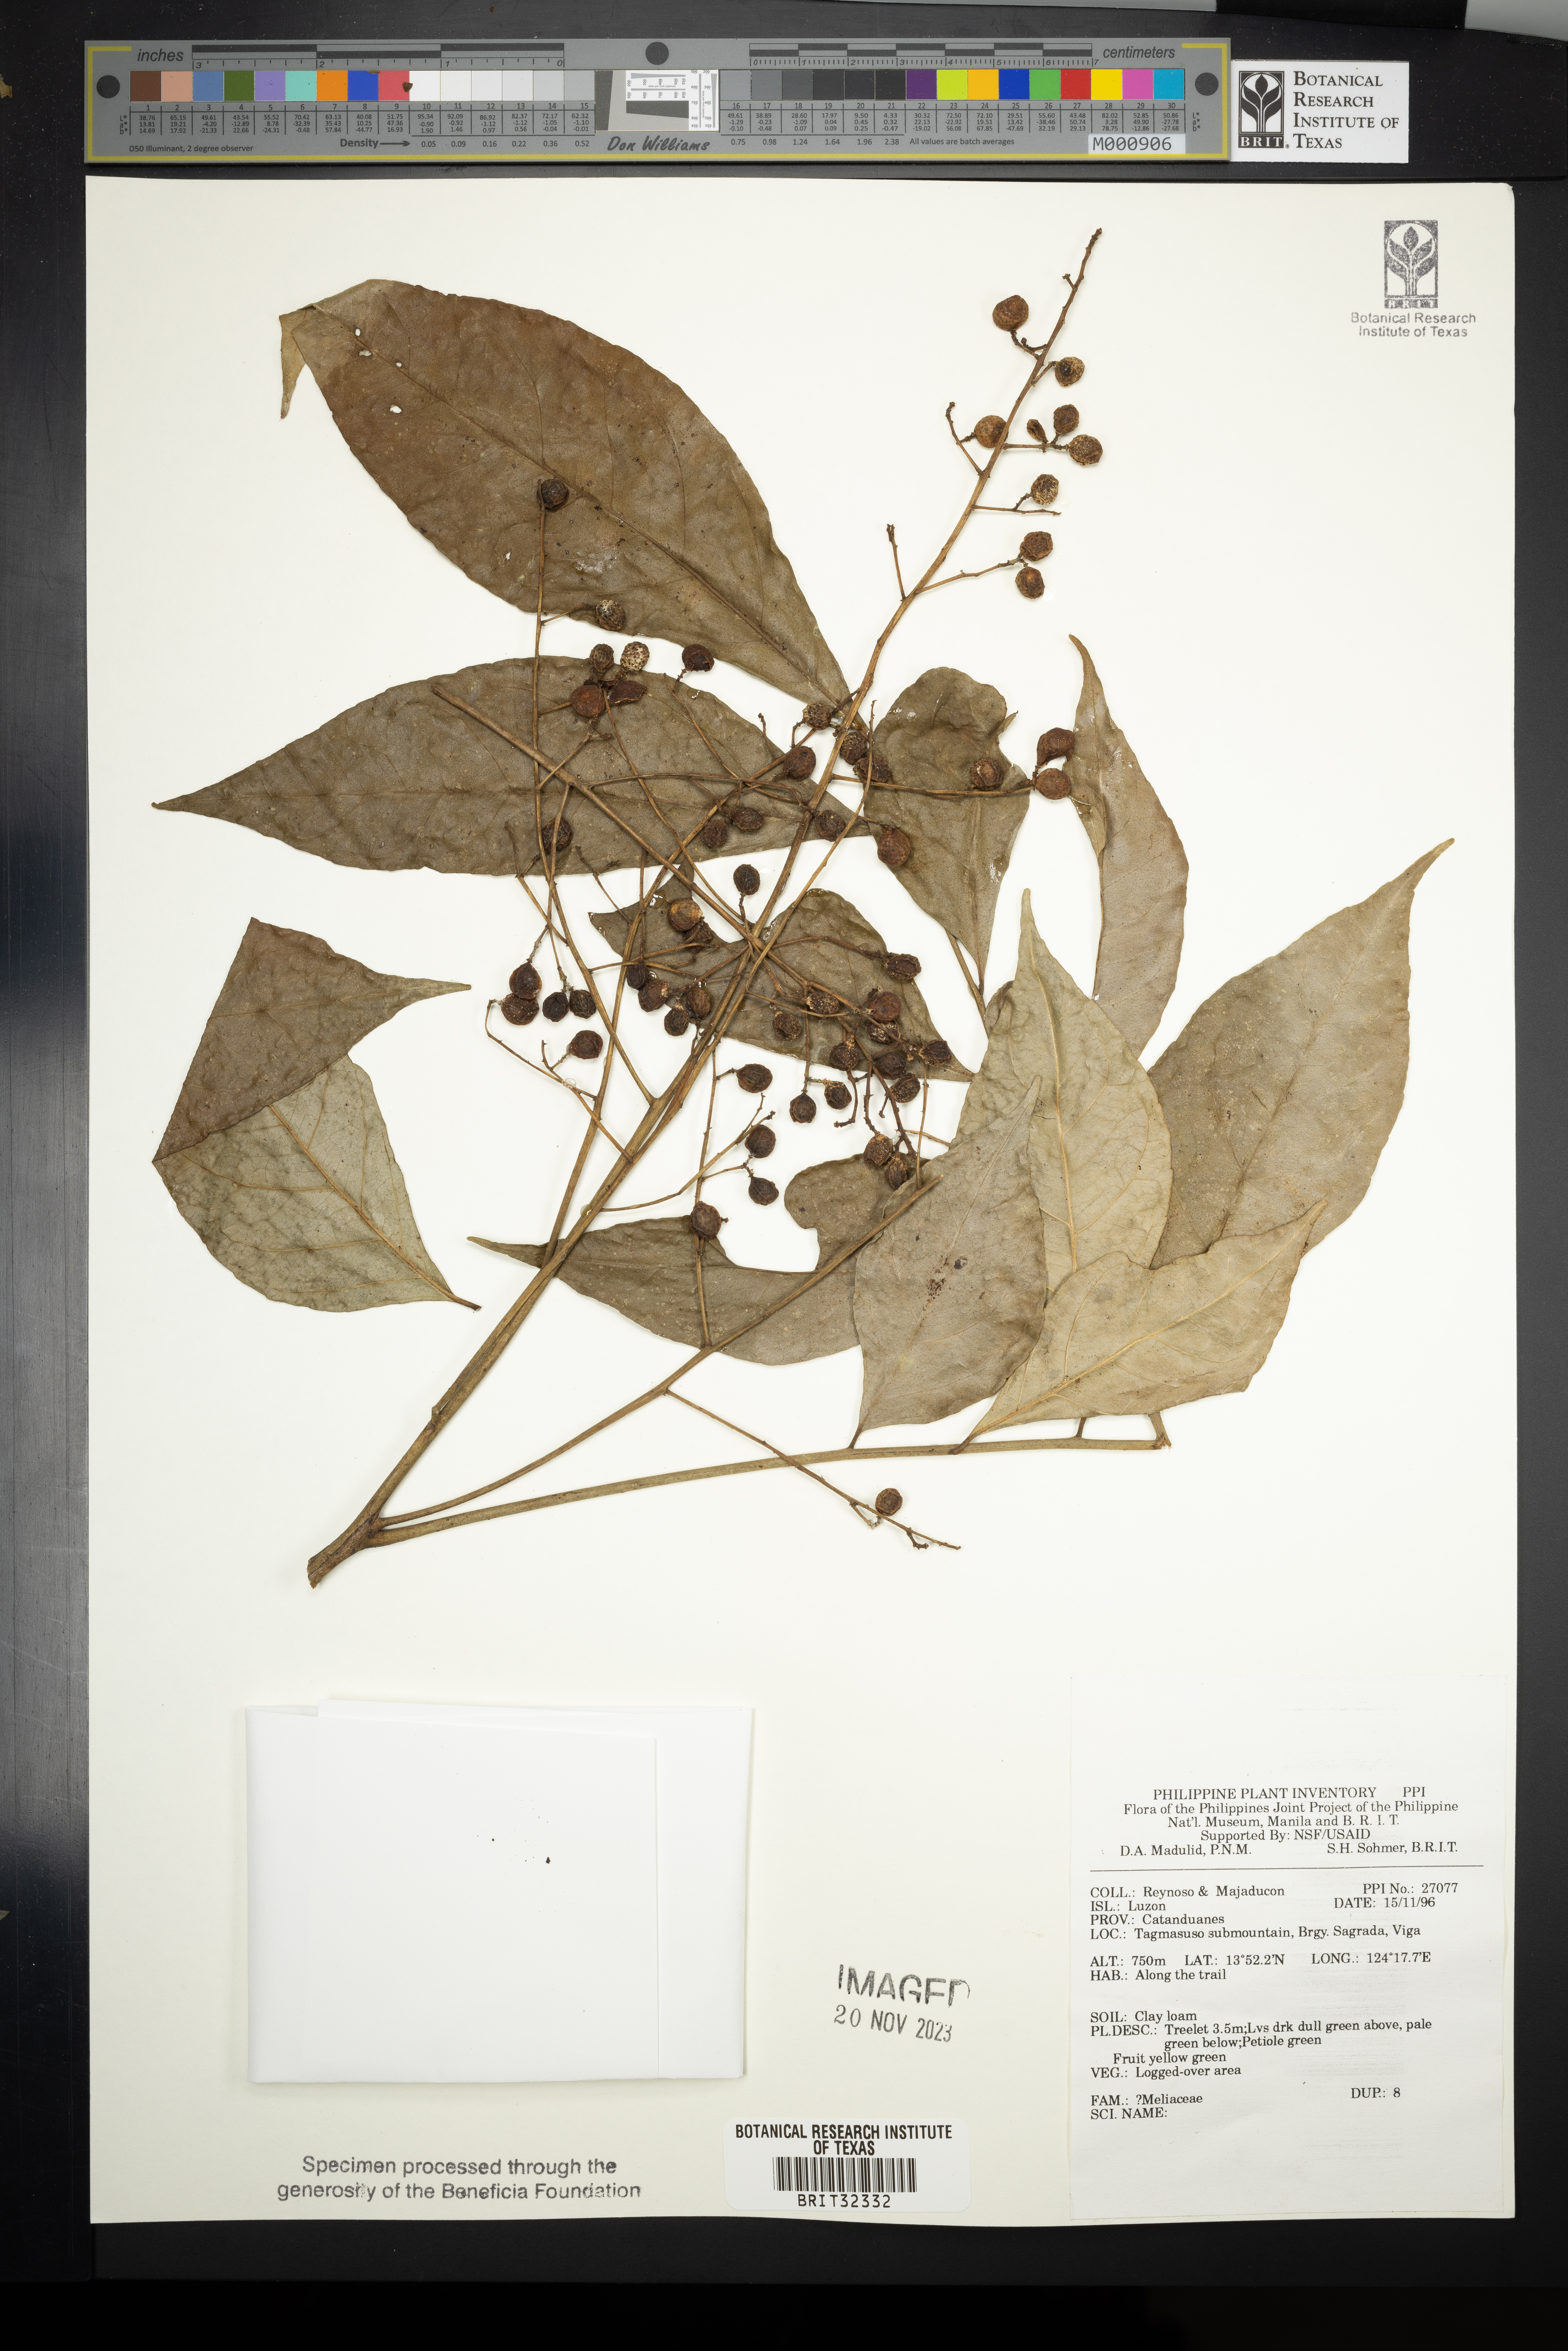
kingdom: Plantae
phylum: Tracheophyta
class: Magnoliopsida
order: Sapindales
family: Meliaceae
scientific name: Meliaceae
